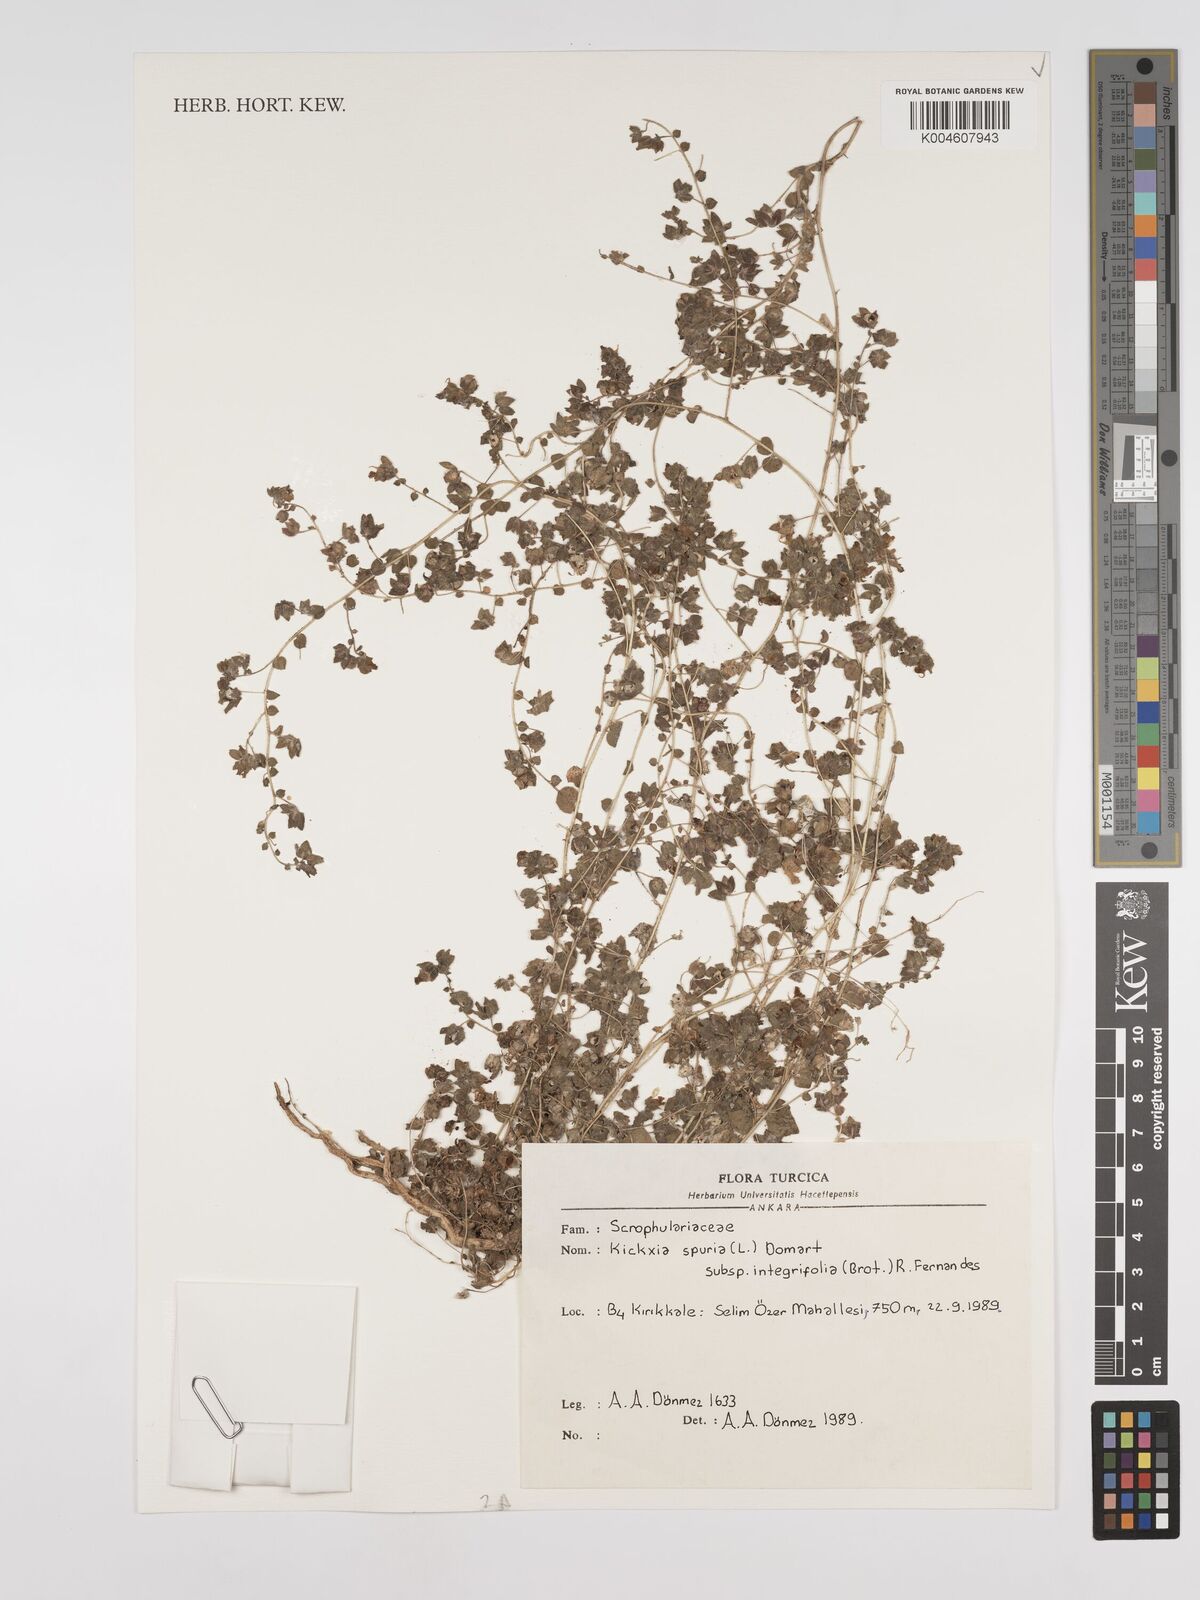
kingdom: Plantae
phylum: Tracheophyta
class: Magnoliopsida
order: Lamiales
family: Plantaginaceae
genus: Kickxia
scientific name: Kickxia spuria
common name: Round-leaved fluellen
